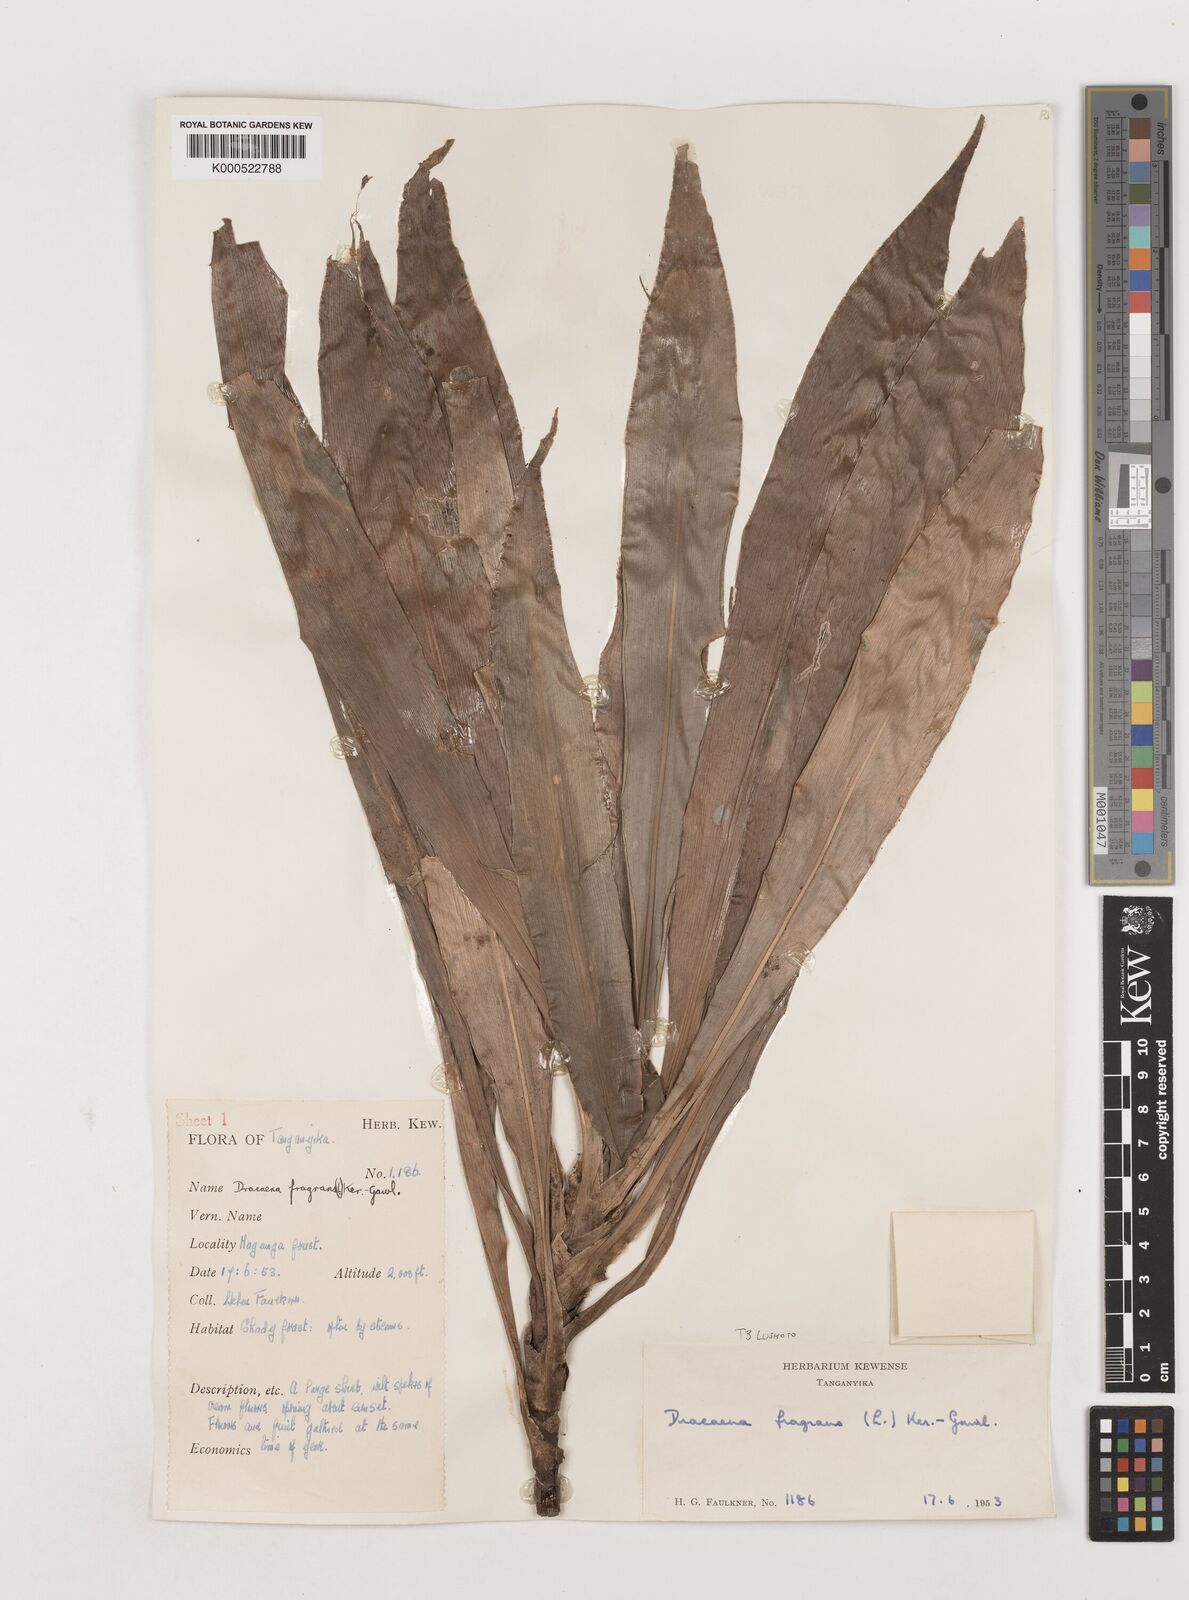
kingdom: Plantae
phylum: Tracheophyta
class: Liliopsida
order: Asparagales
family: Asparagaceae
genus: Dracaena
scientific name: Dracaena fragrans
